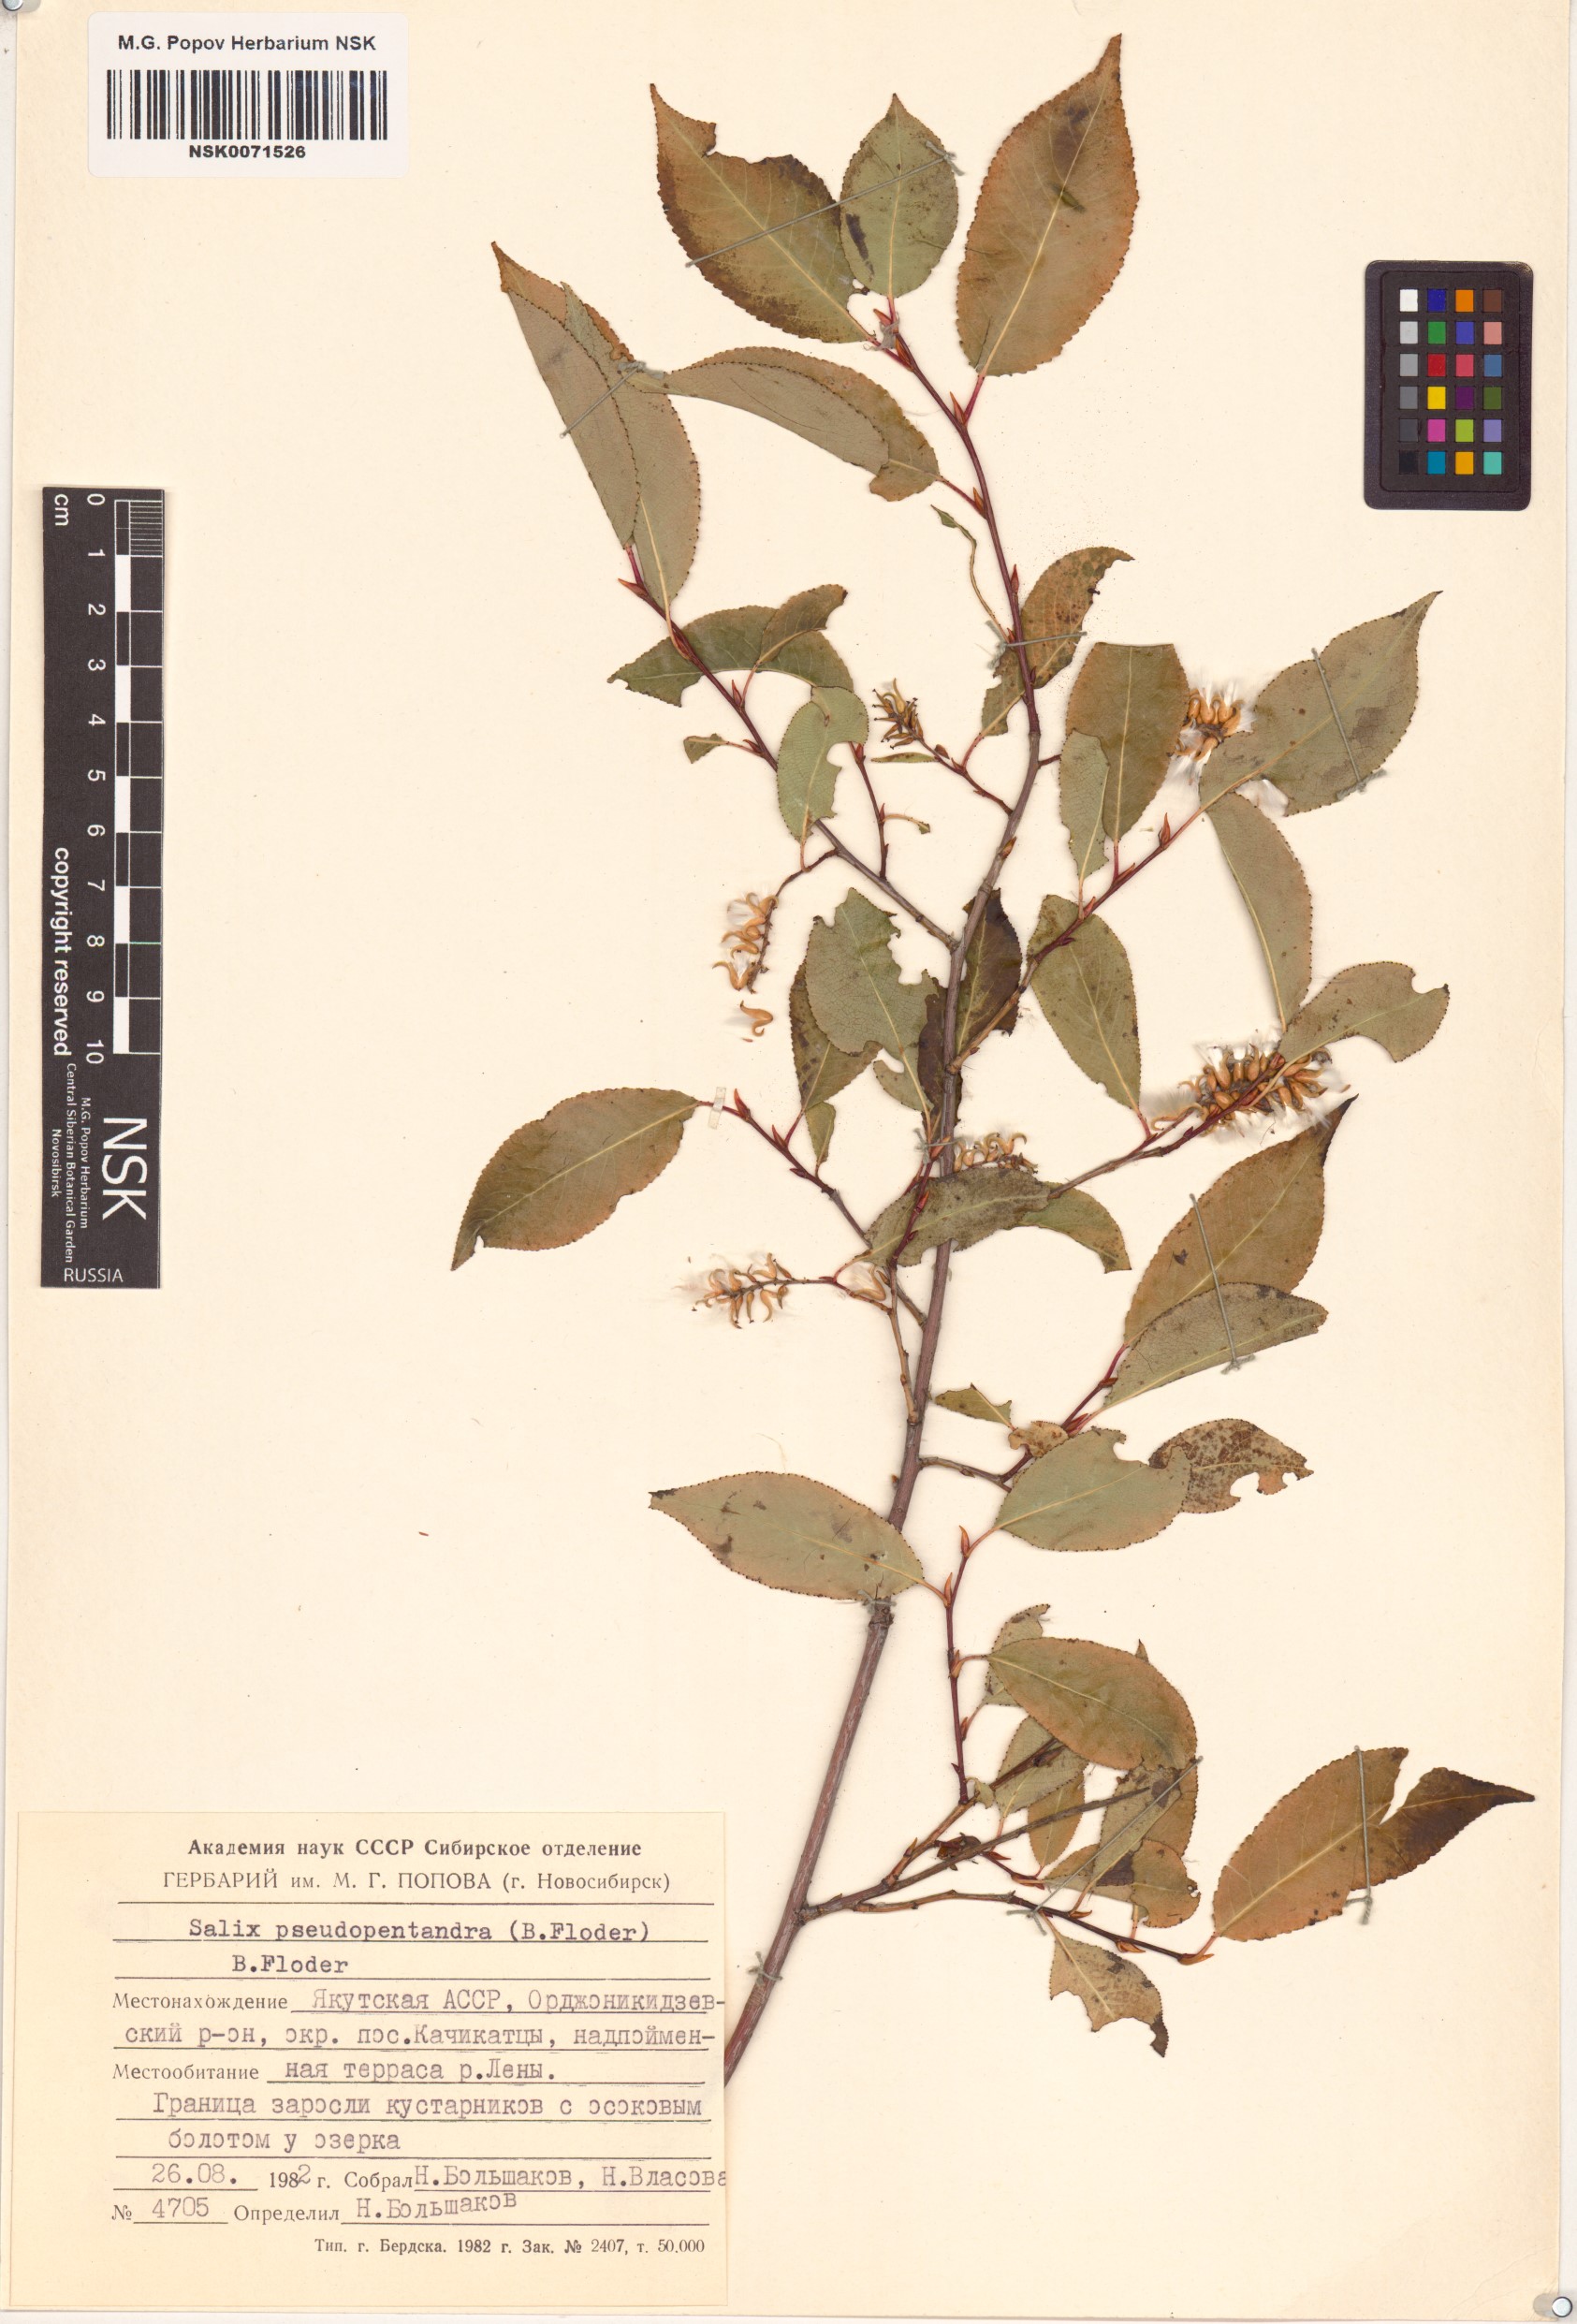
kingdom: Plantae
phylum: Tracheophyta
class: Magnoliopsida
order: Malpighiales
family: Salicaceae
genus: Salix
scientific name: Salix pseudopentandra
